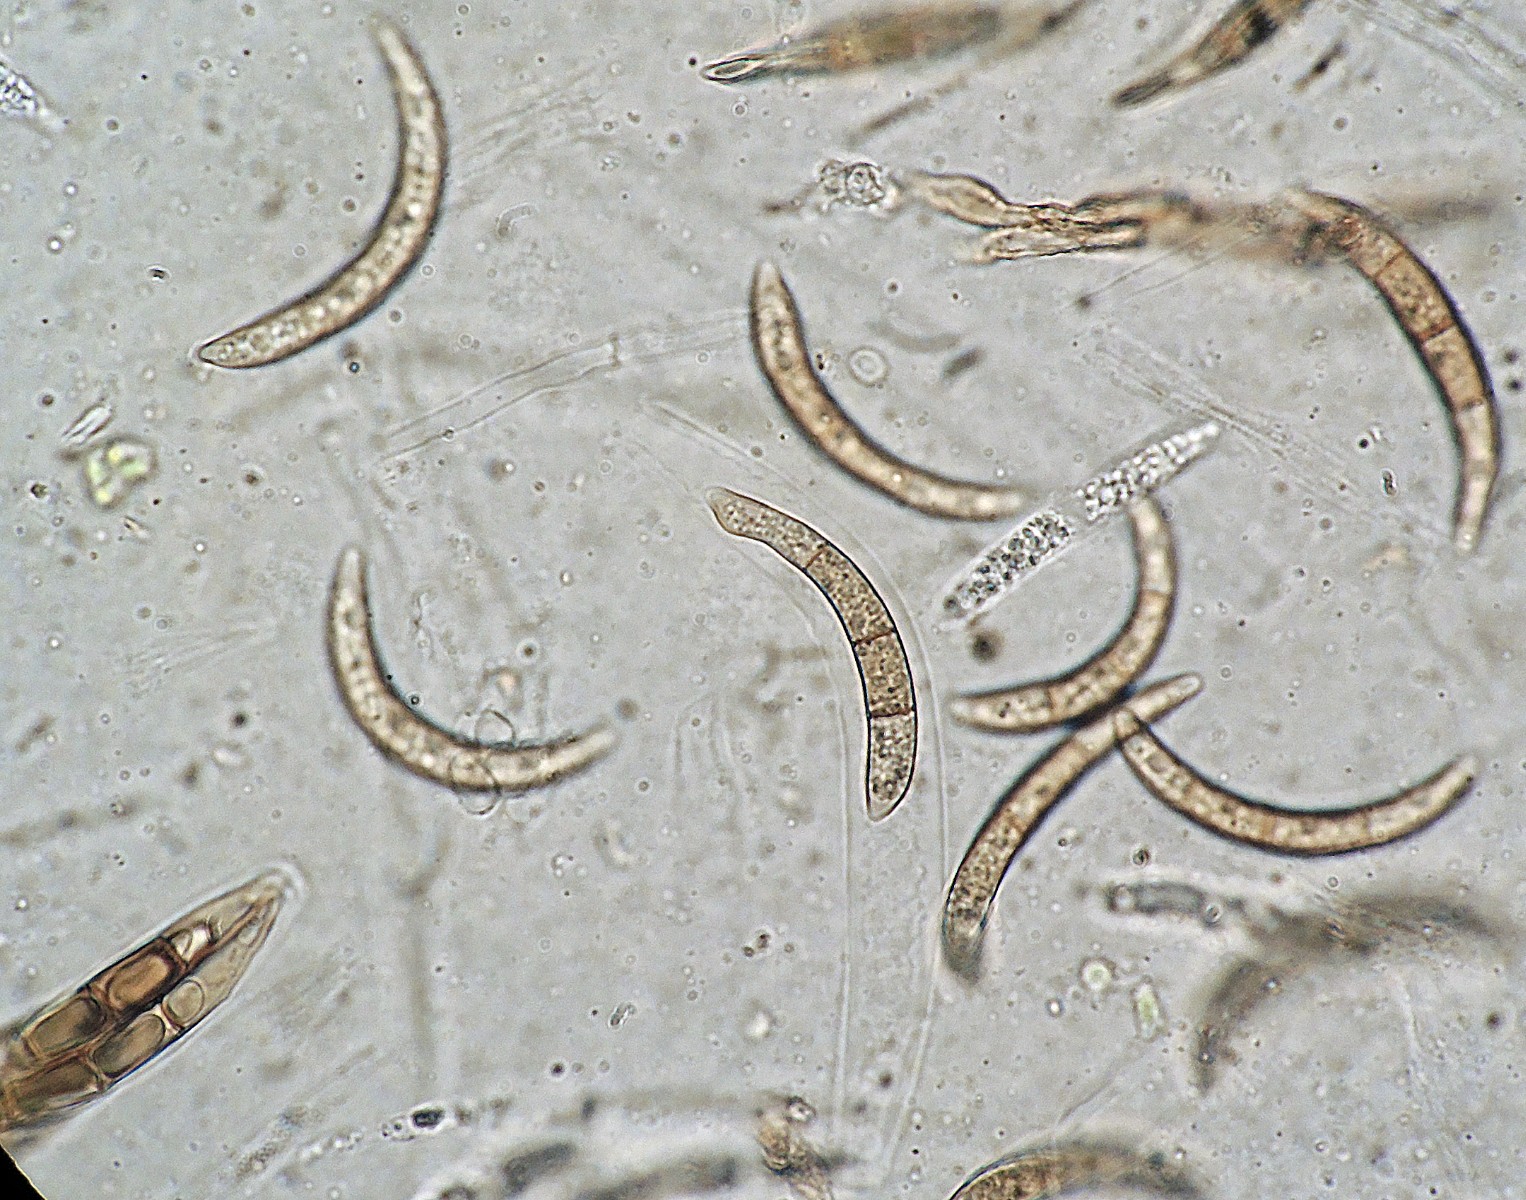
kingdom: Fungi
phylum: Ascomycota
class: Sordariomycetes
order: Xylariales
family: Melogrammataceae
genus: Melogramma
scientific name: Melogramma campylosporum
